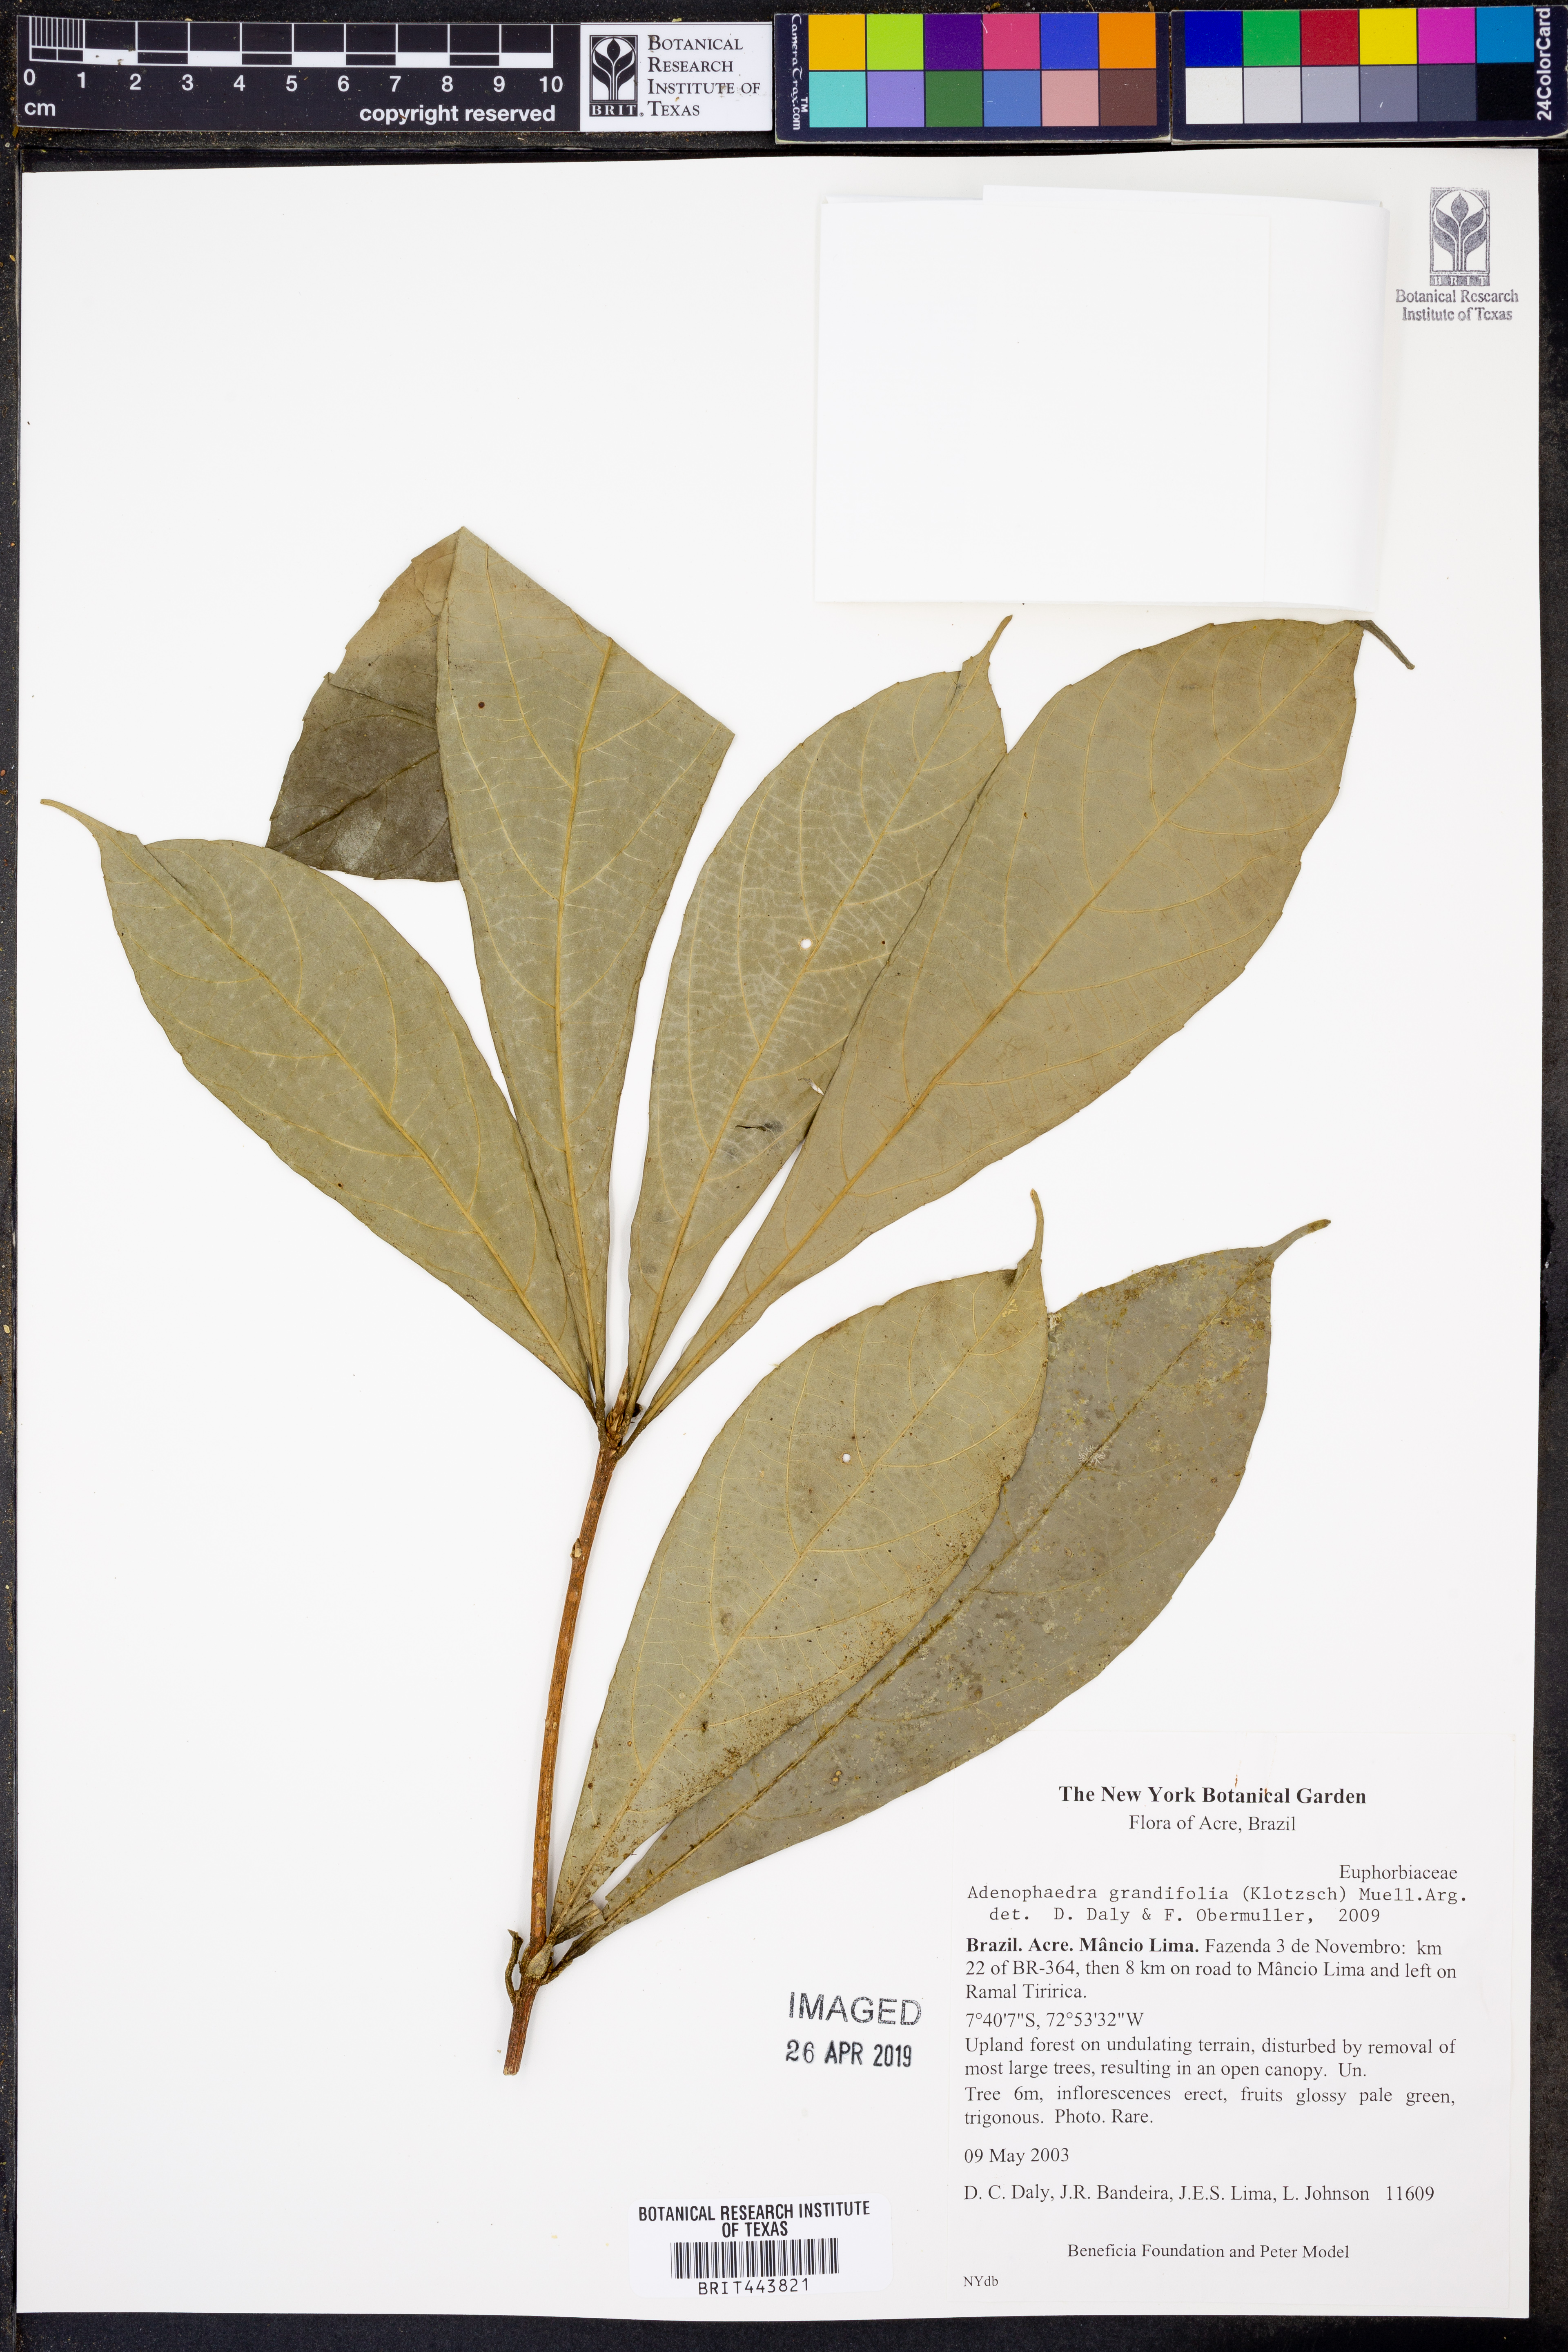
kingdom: Plantae
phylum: Tracheophyta
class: Magnoliopsida
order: Malpighiales
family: Euphorbiaceae
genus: Adenophaedra
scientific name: Adenophaedra grandifolia
